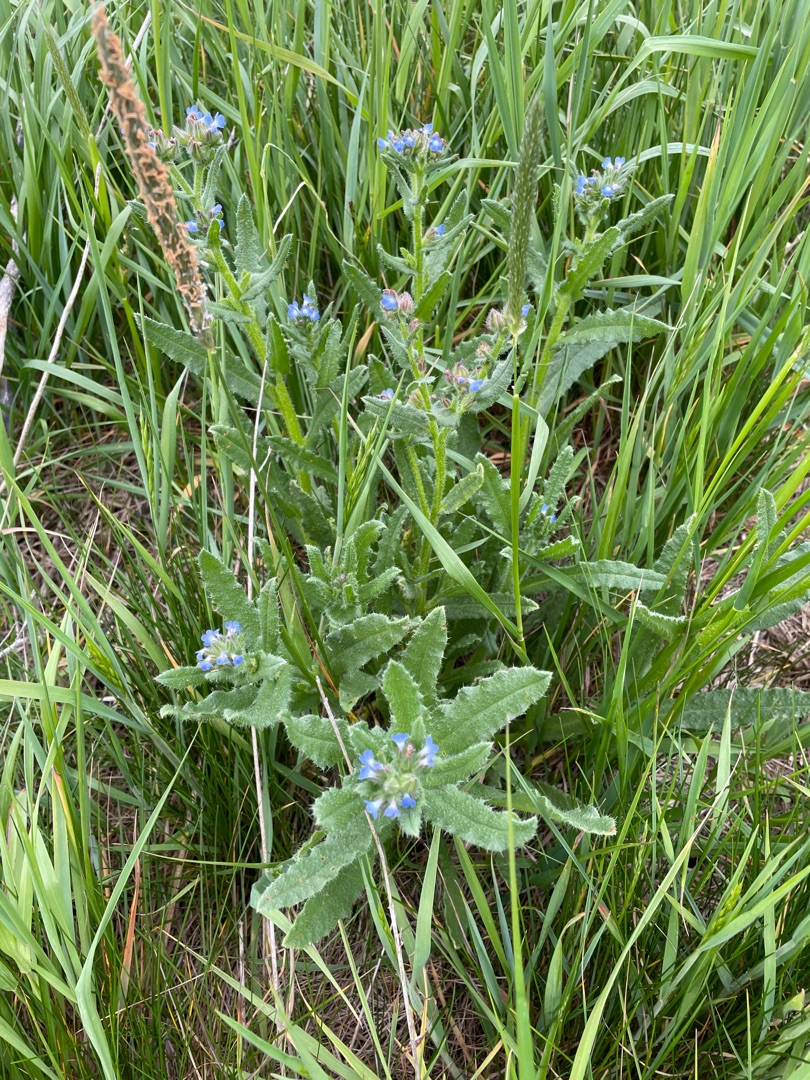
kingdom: Plantae
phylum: Tracheophyta
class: Magnoliopsida
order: Boraginales
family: Boraginaceae
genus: Lycopsis
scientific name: Lycopsis arvensis
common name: Krumhals
